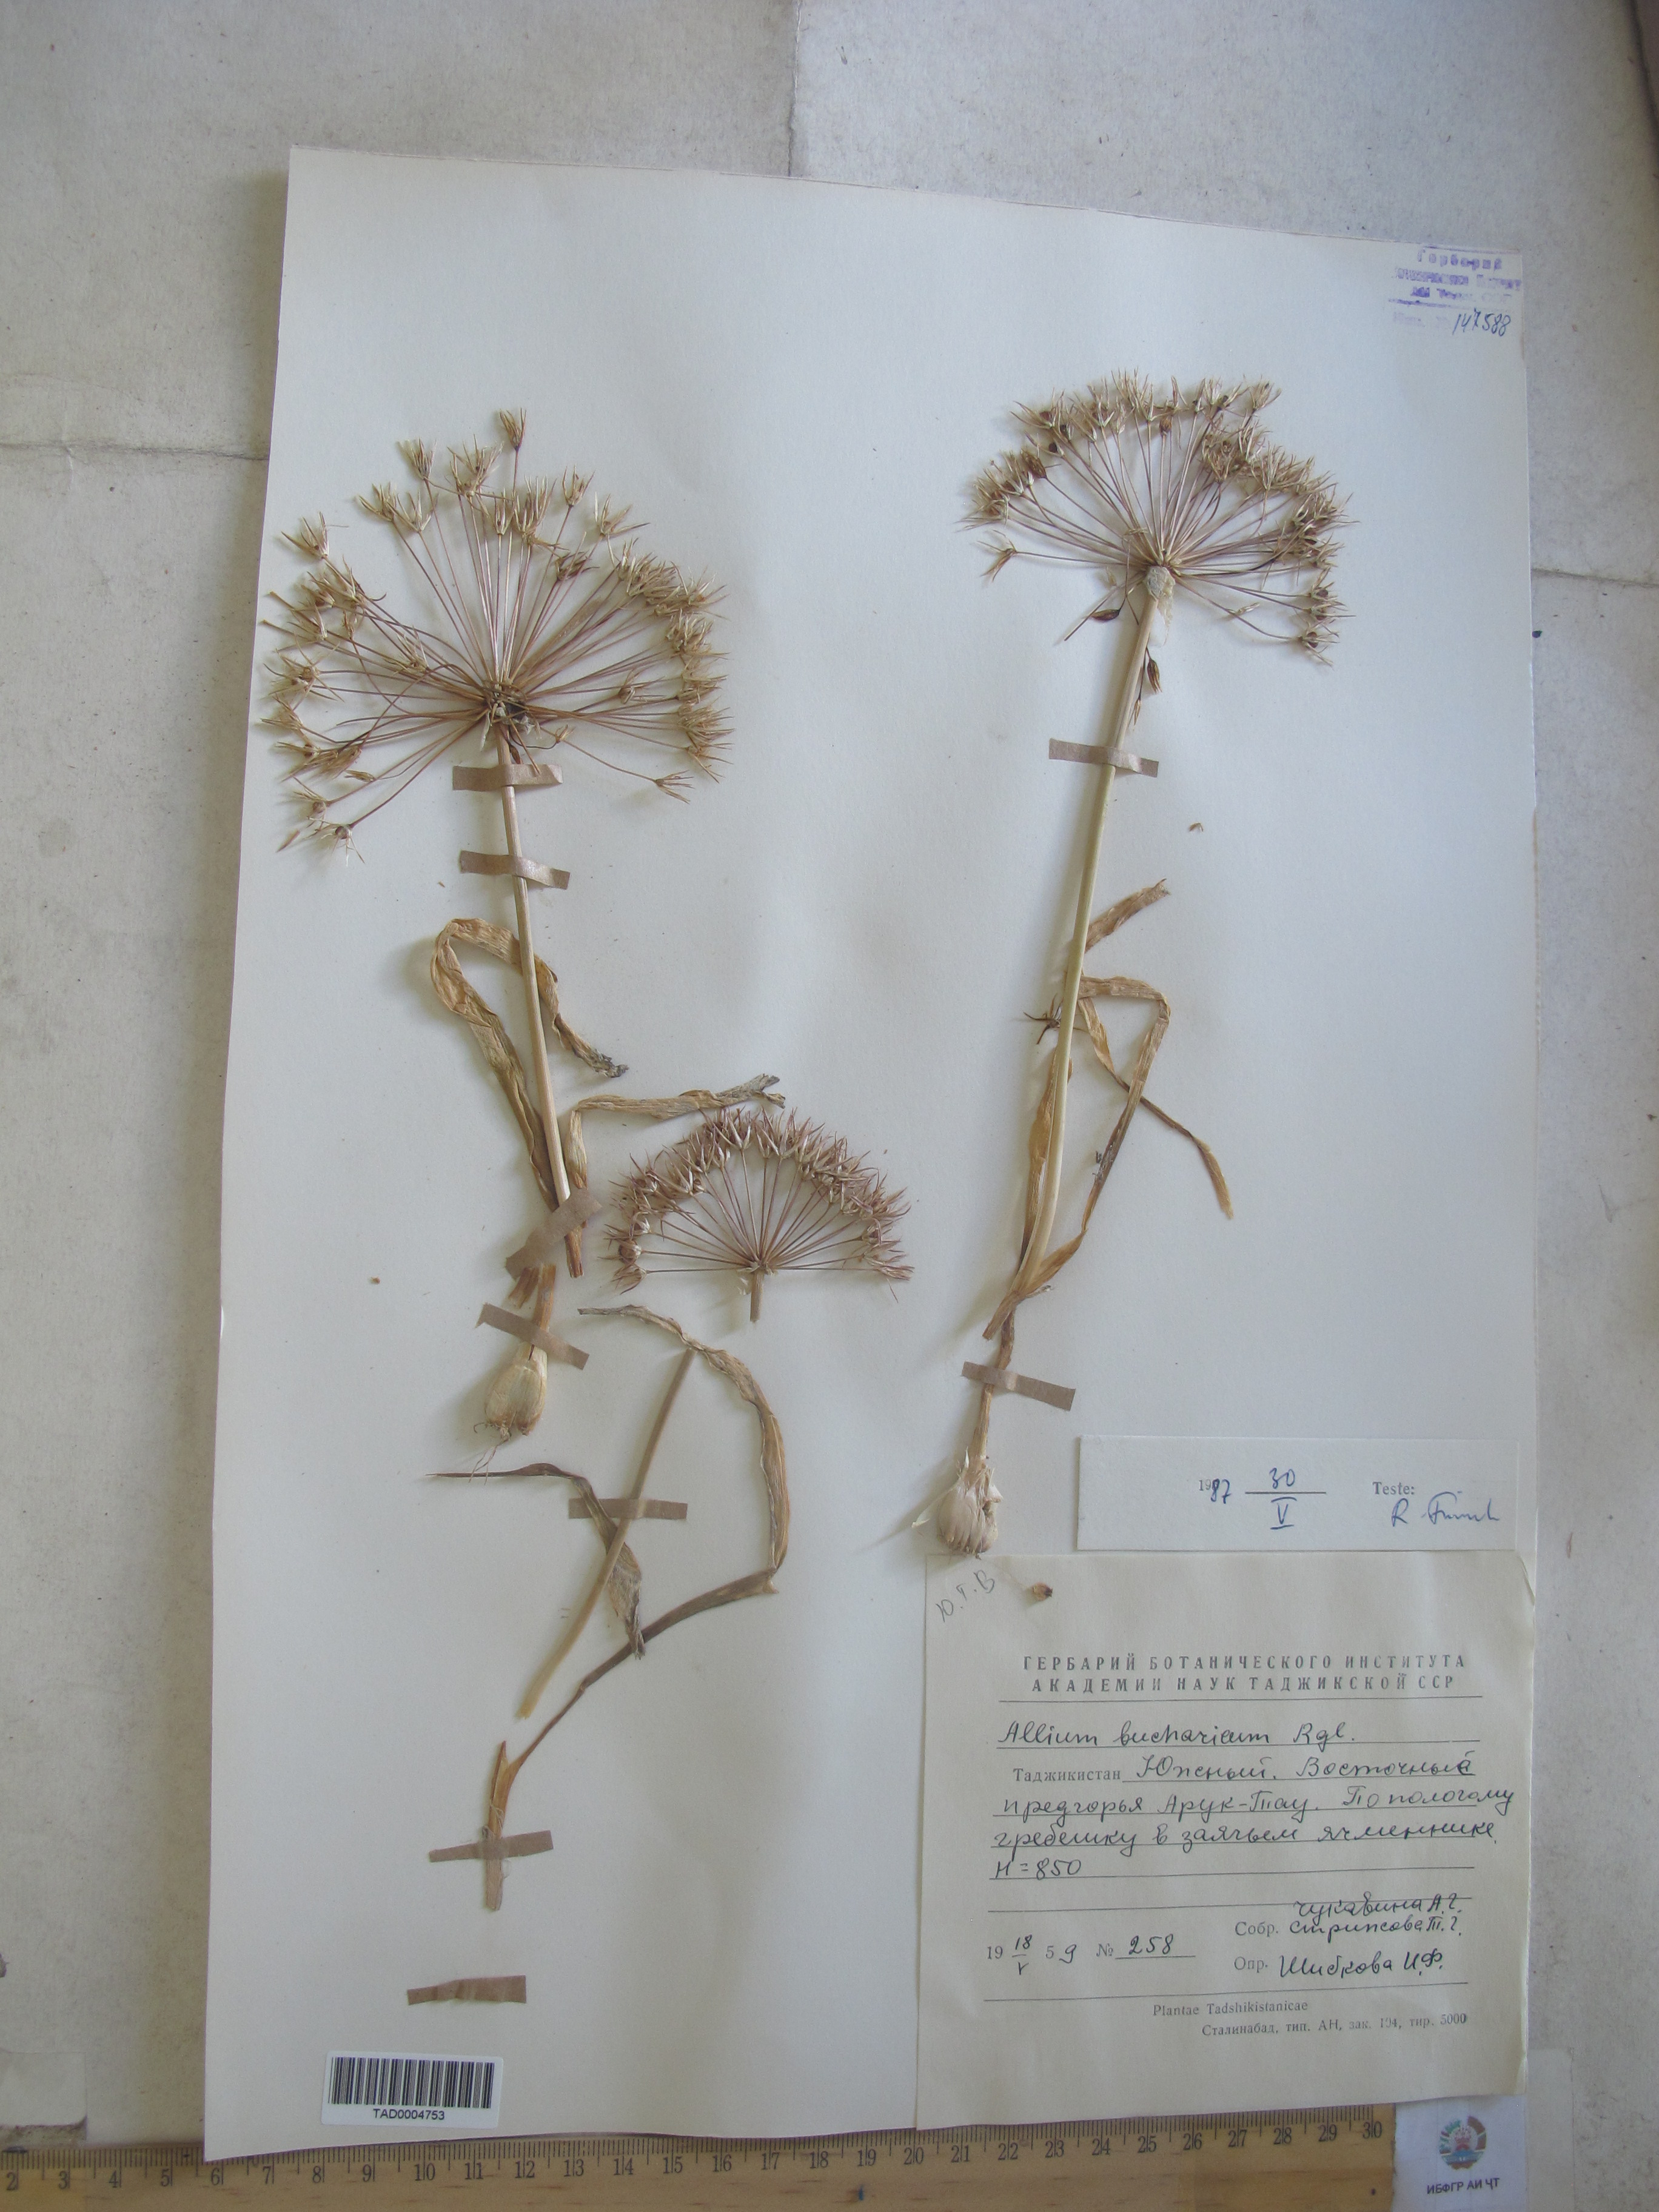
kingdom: Plantae
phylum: Tracheophyta
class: Liliopsida
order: Asparagales
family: Amaryllidaceae
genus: Allium
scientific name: Allium bucharicum
